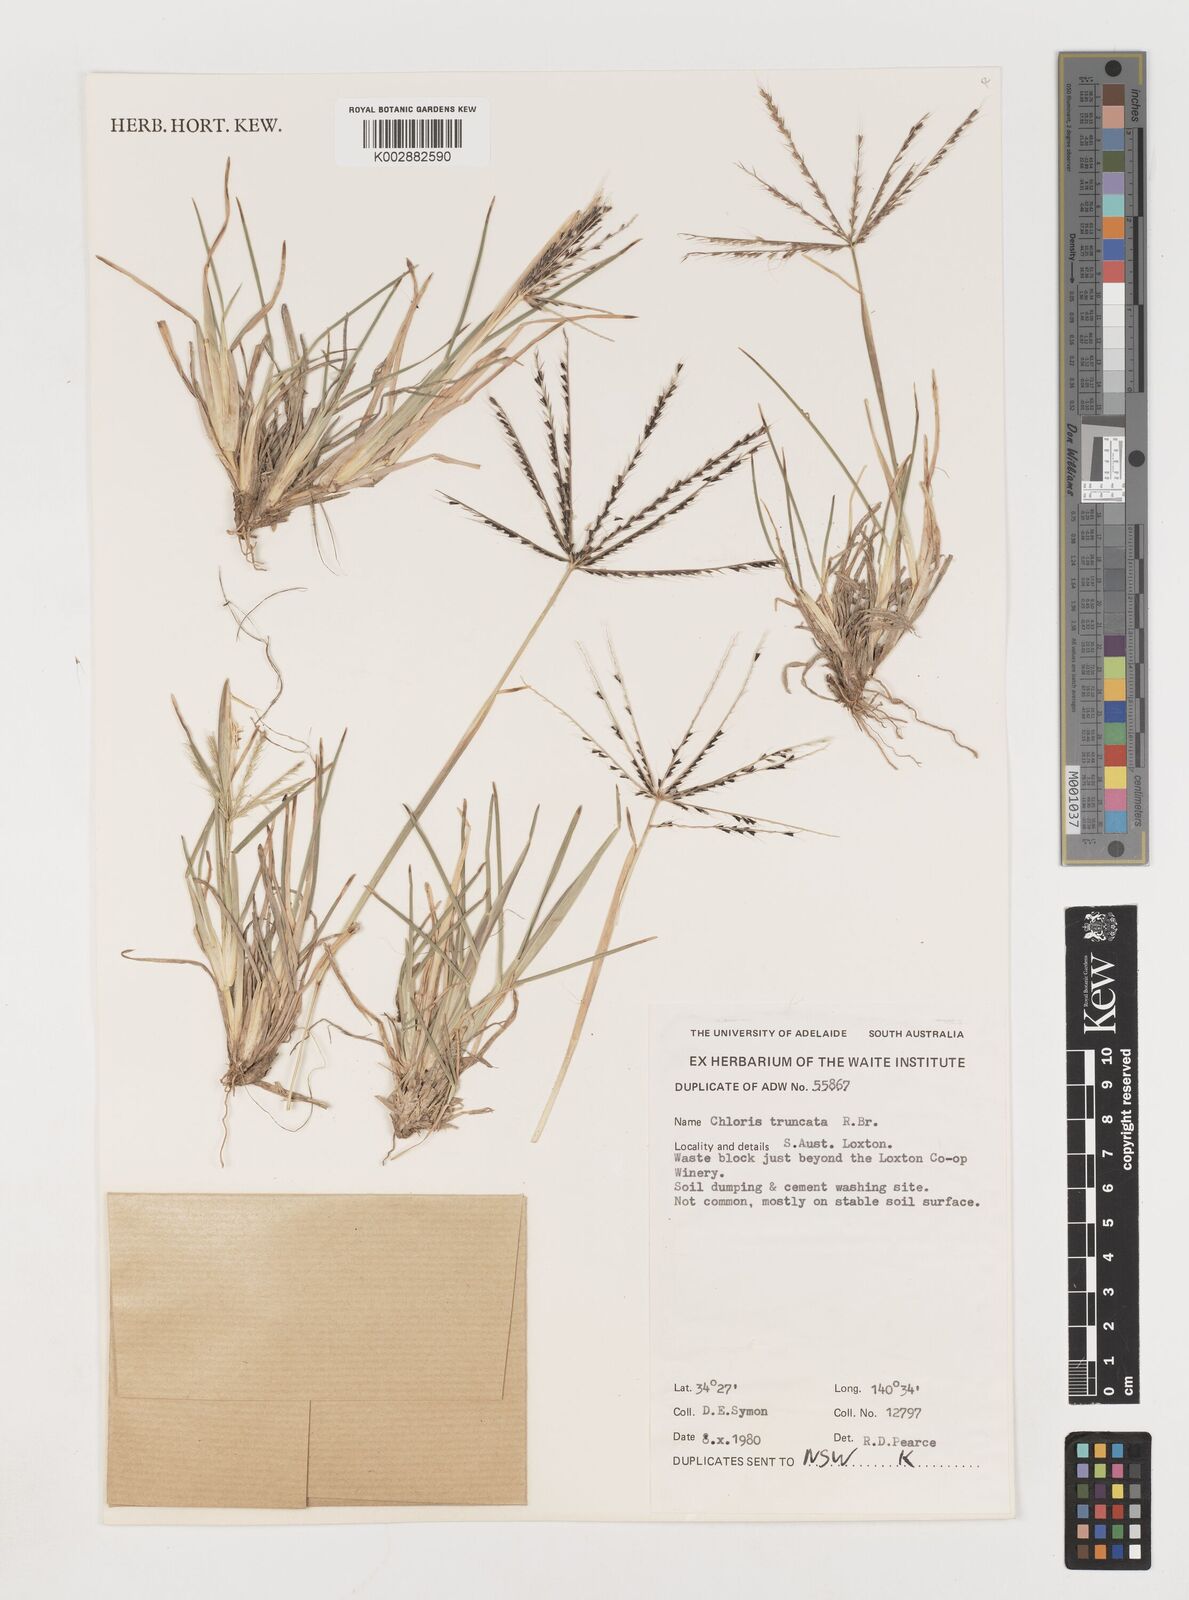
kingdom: Plantae
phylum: Tracheophyta
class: Liliopsida
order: Poales
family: Poaceae
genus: Chloris
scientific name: Chloris truncata
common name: Windmill-grass
